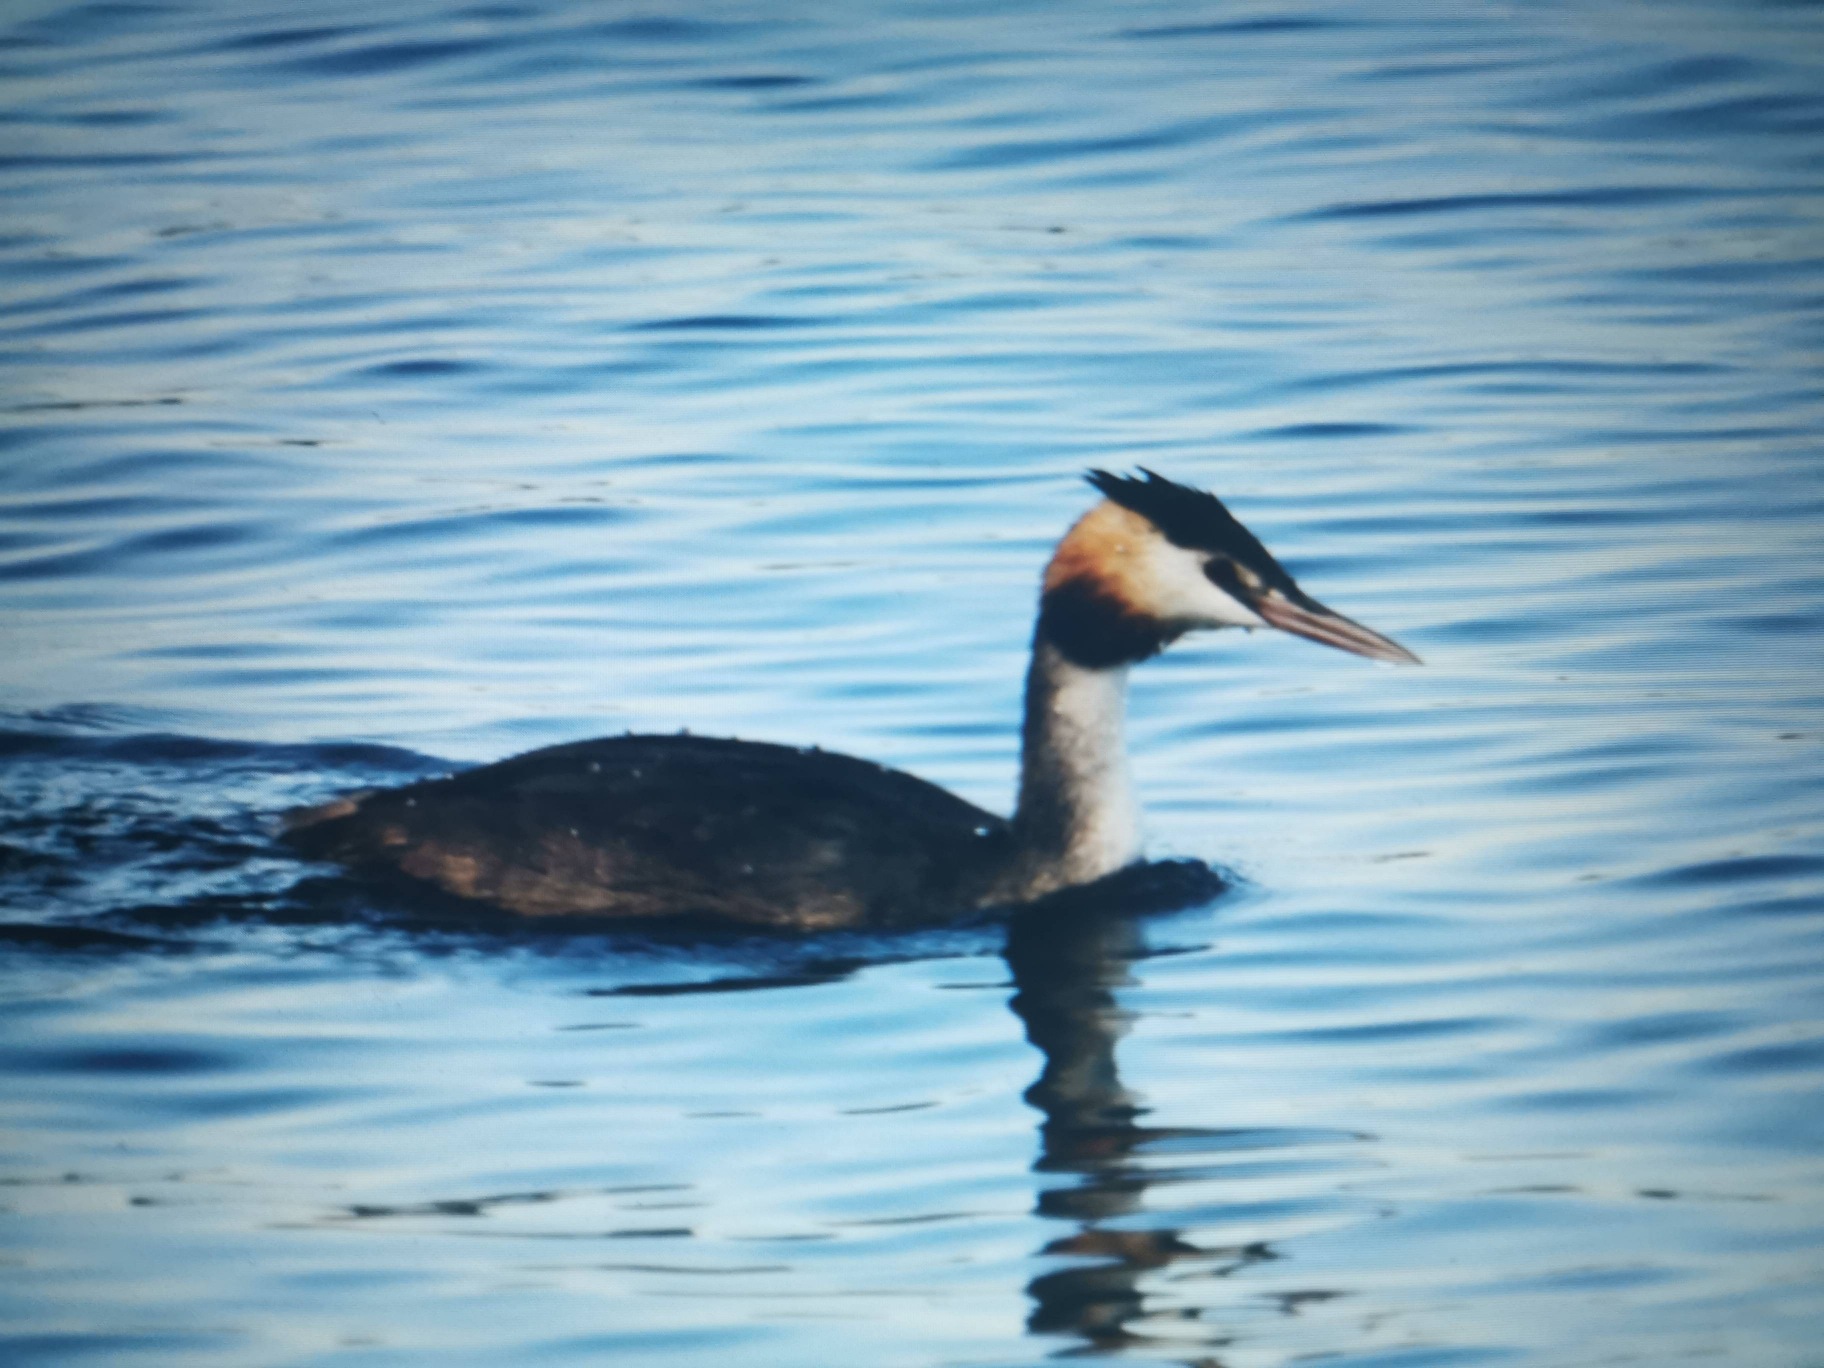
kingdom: Animalia
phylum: Chordata
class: Aves
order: Podicipediformes
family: Podicipedidae
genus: Podiceps
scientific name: Podiceps cristatus
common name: Toppet lappedykker
